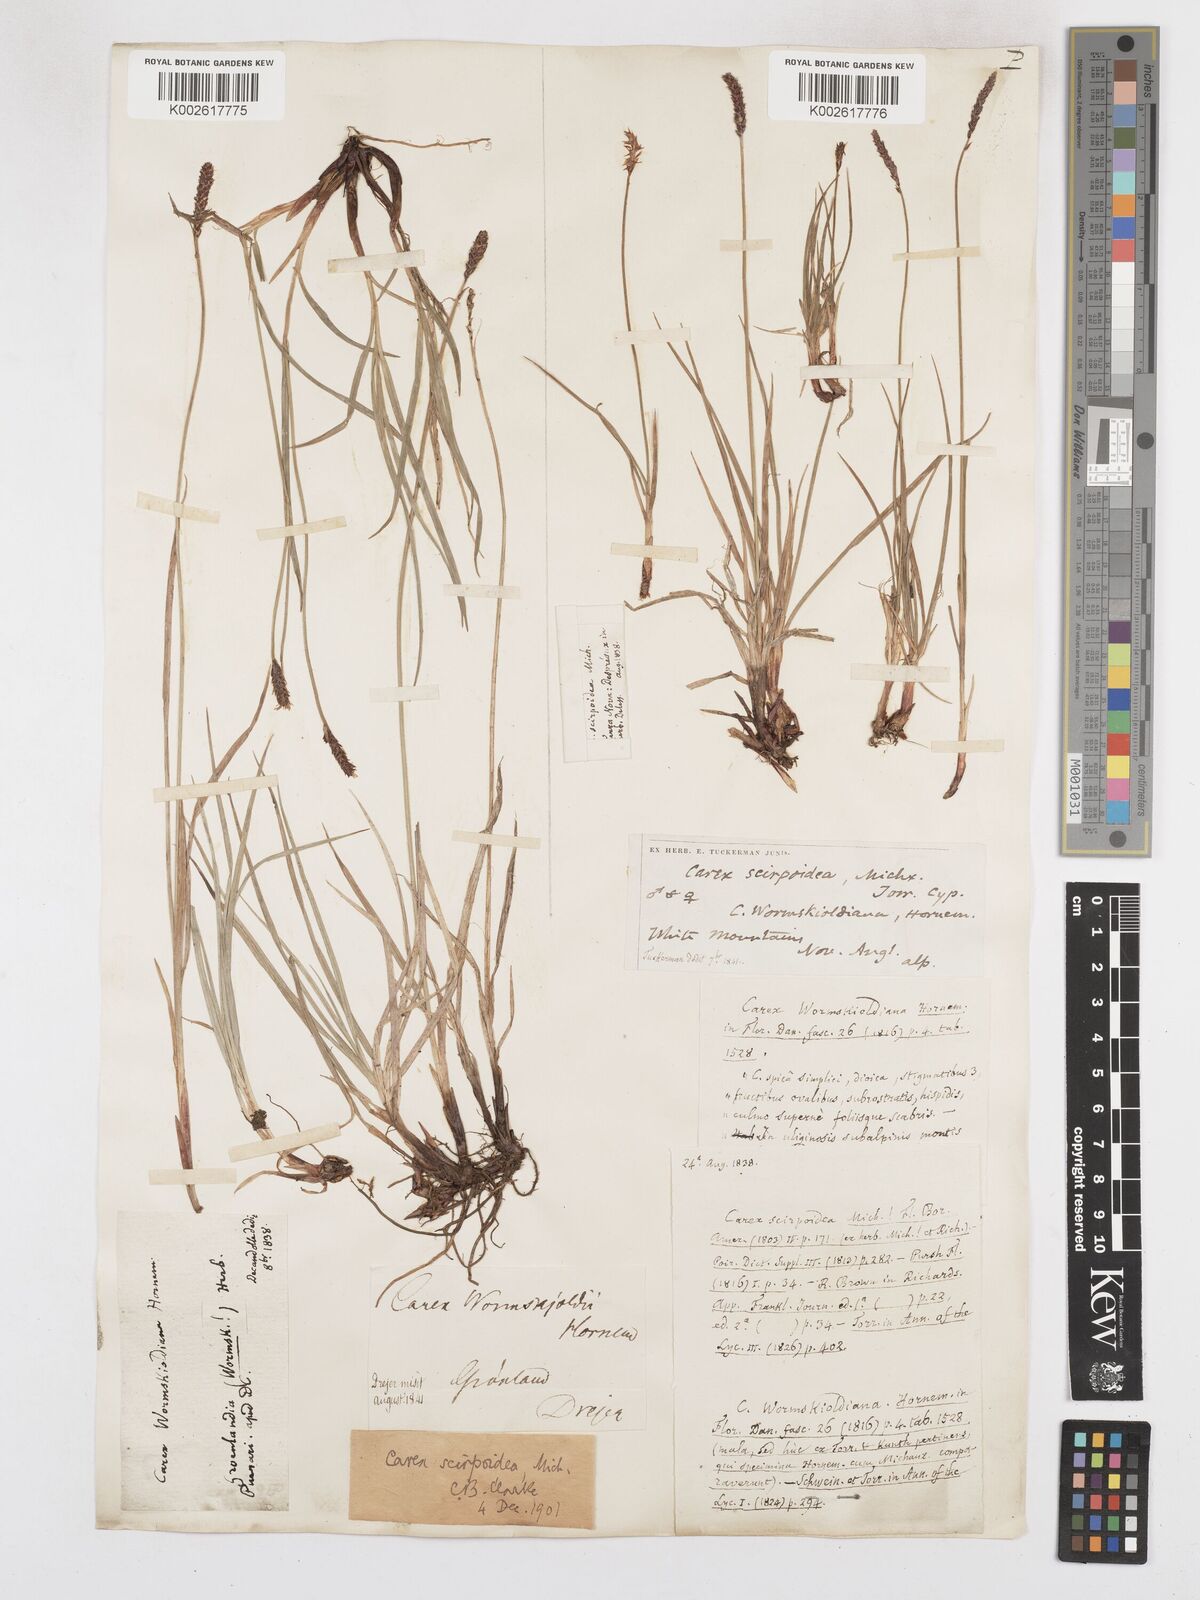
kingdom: Plantae
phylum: Tracheophyta
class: Liliopsida
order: Poales
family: Cyperaceae
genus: Carex
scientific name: Carex scirpoidea
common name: Canada single-spike sedge
